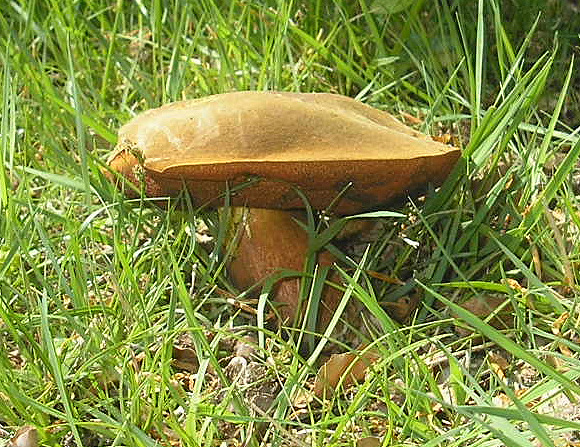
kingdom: Fungi
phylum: Basidiomycota
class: Agaricomycetes
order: Boletales
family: Boletaceae
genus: Neoboletus
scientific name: Neoboletus erythropus
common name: punktstokket indigorørhat
